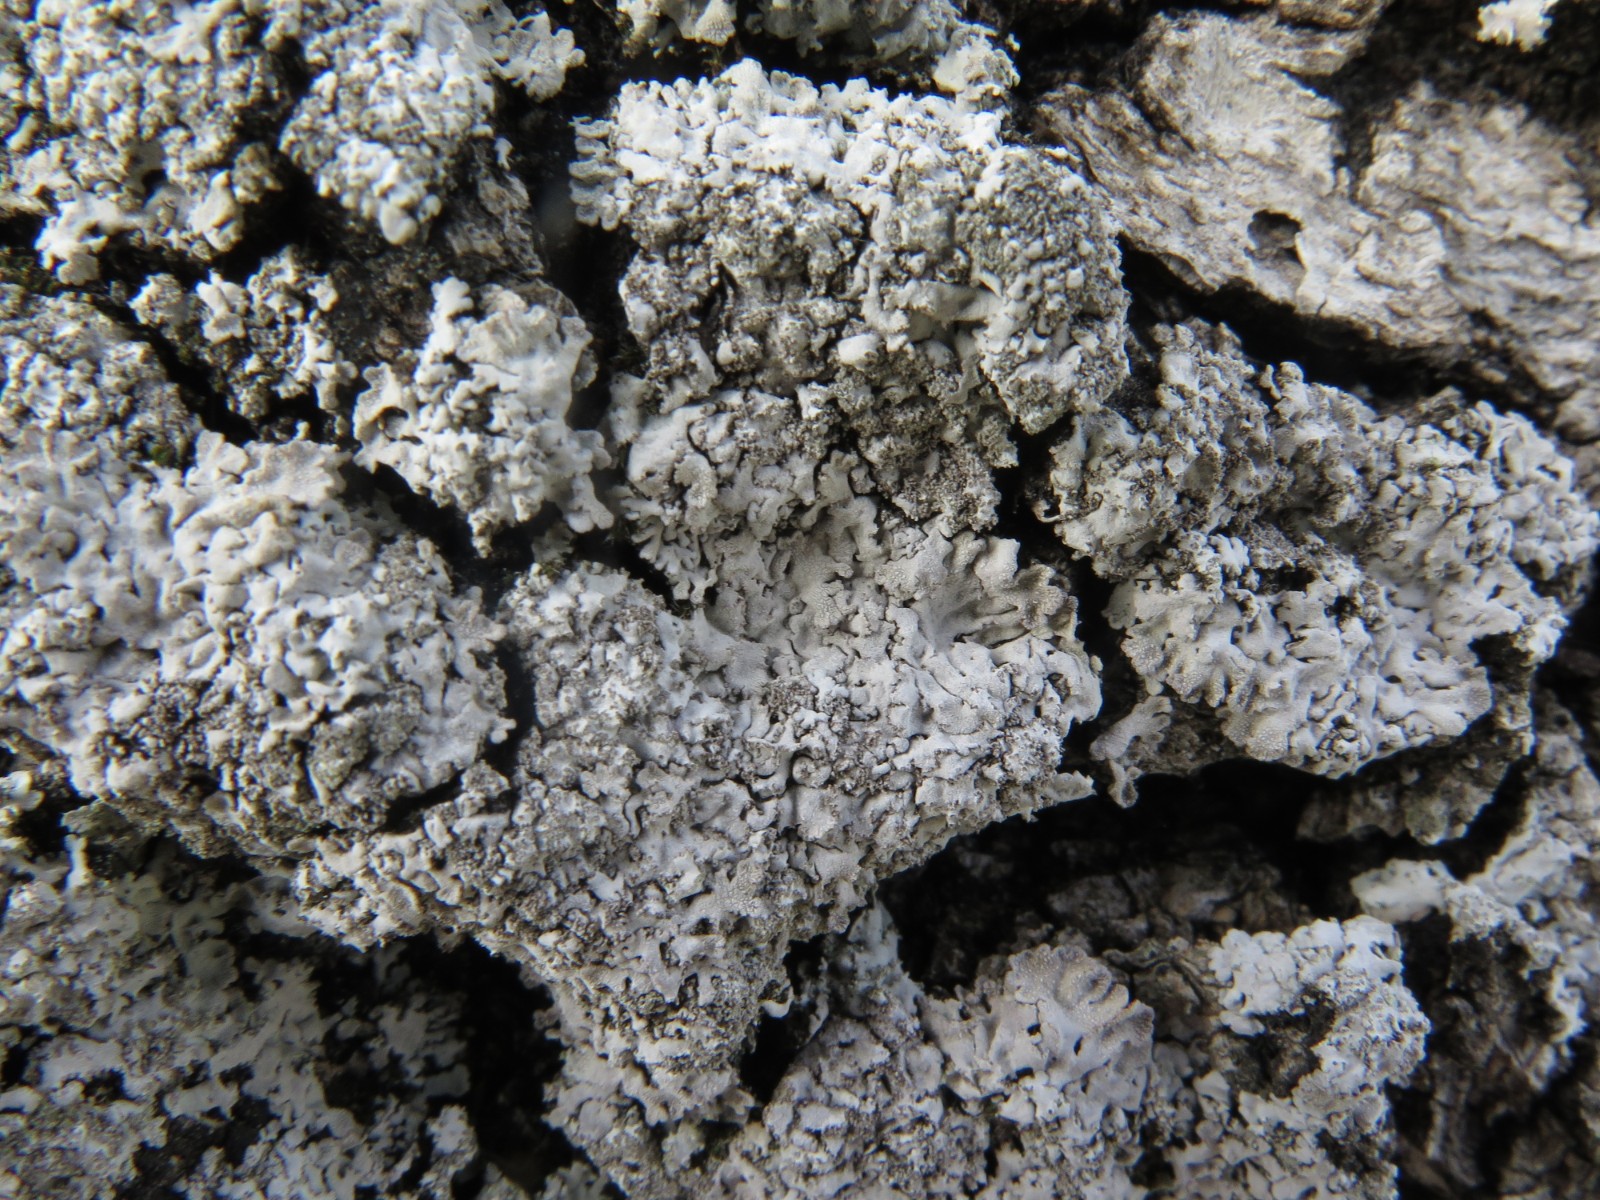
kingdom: Fungi
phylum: Ascomycota
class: Lecanoromycetes
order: Caliciales
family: Physciaceae
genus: Physconia
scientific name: Physconia
